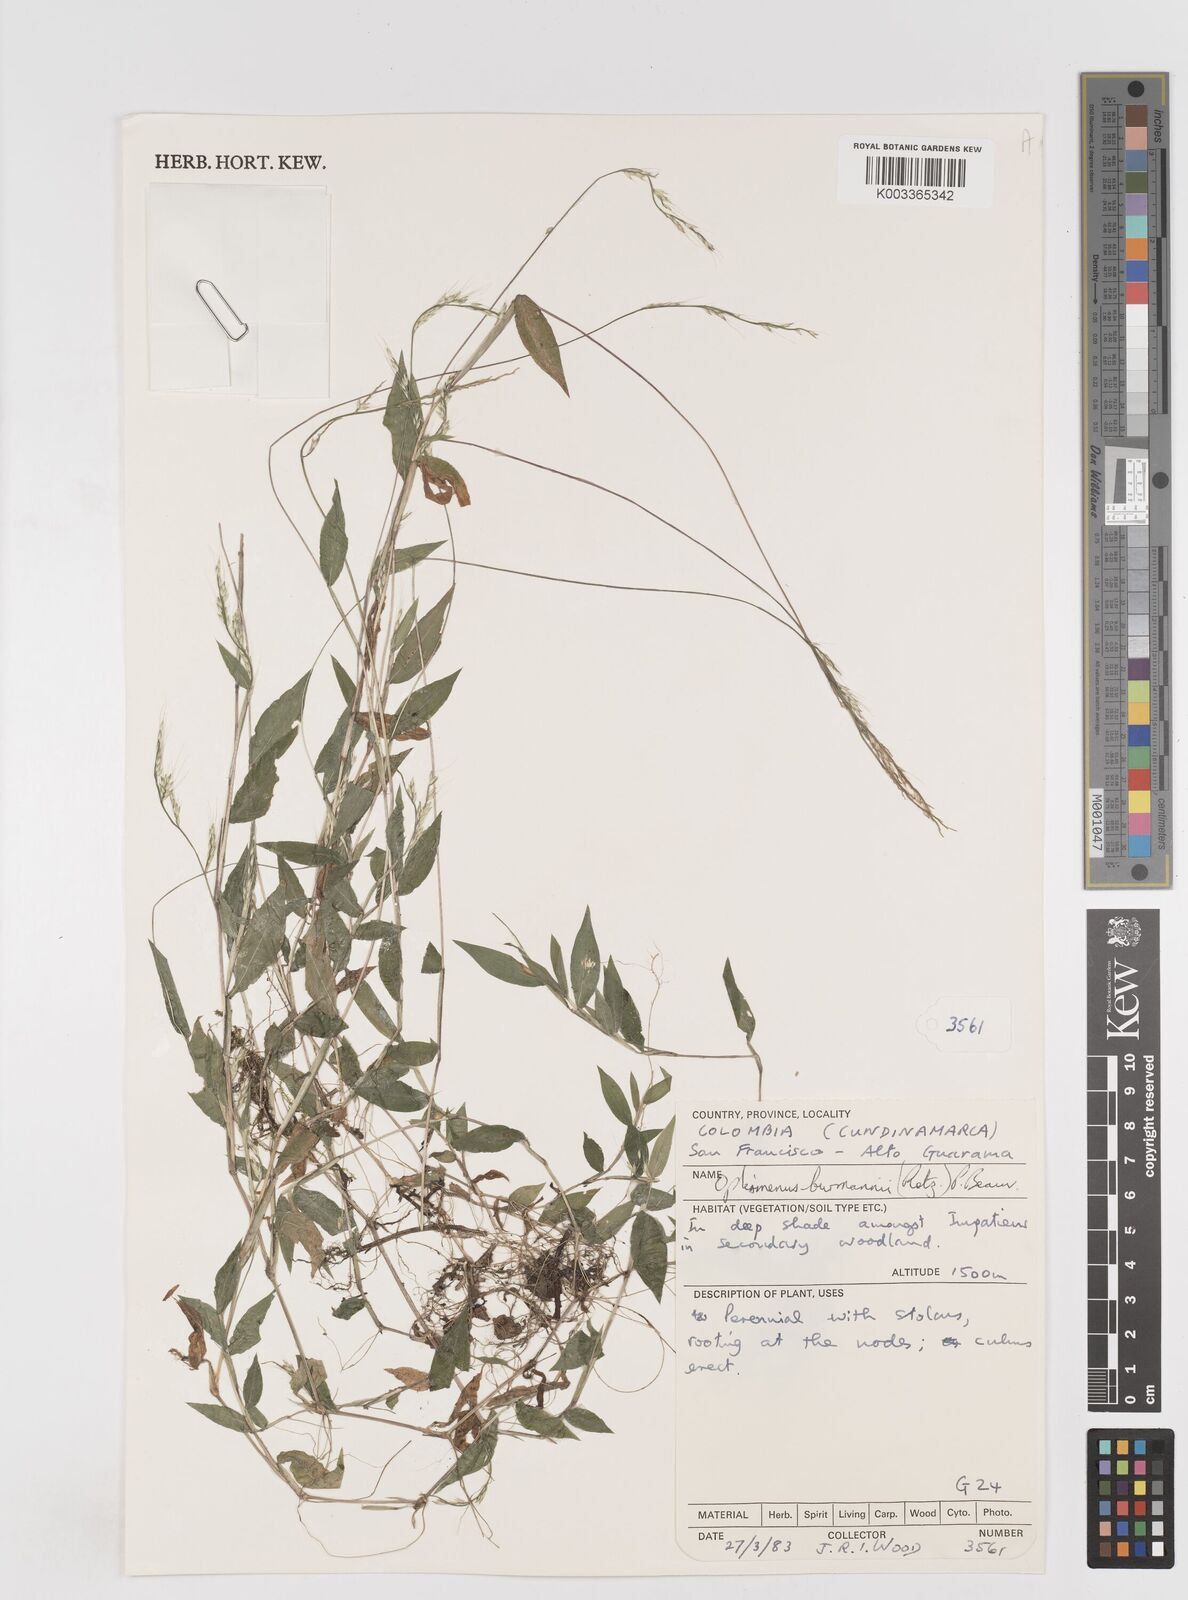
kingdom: Plantae
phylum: Tracheophyta
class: Liliopsida
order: Poales
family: Poaceae
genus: Oplismenus
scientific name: Oplismenus burmanni
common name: Burmann's basketgrass
